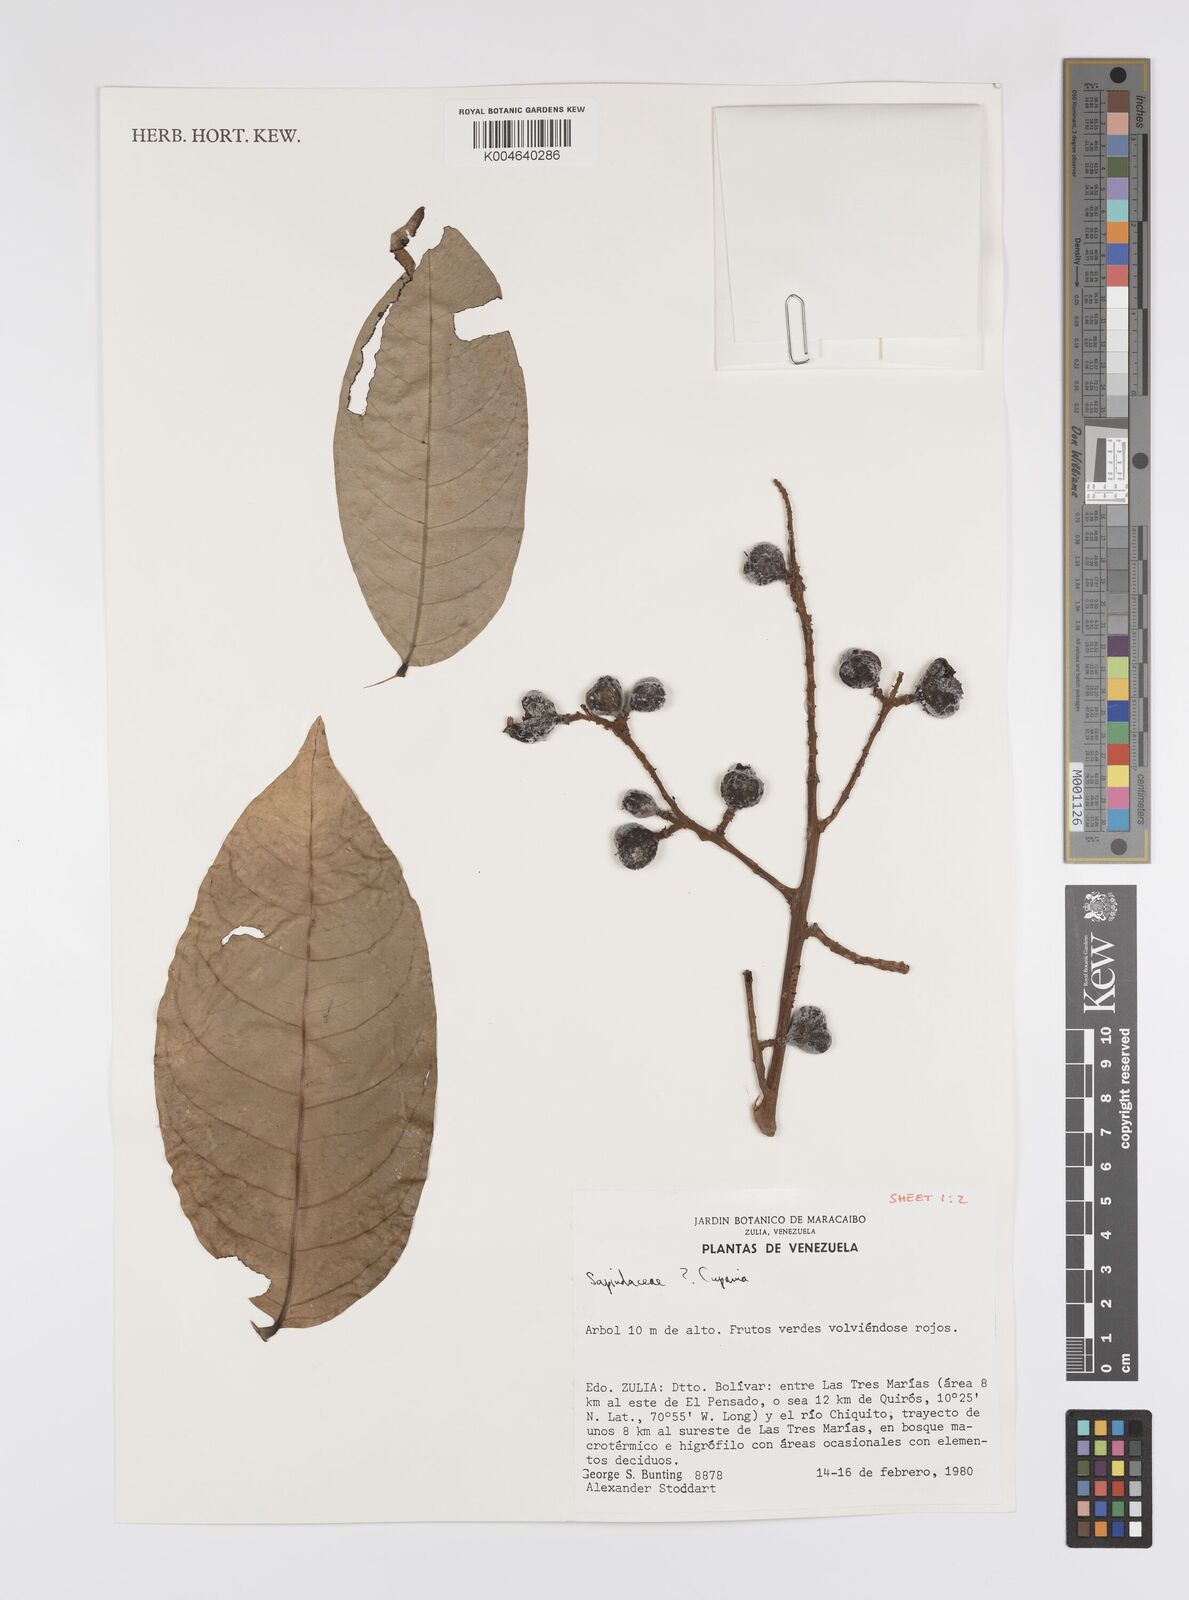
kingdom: Plantae
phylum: Tracheophyta
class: Magnoliopsida
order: Sapindales
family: Sapindaceae
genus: Cupania
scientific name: Cupania
